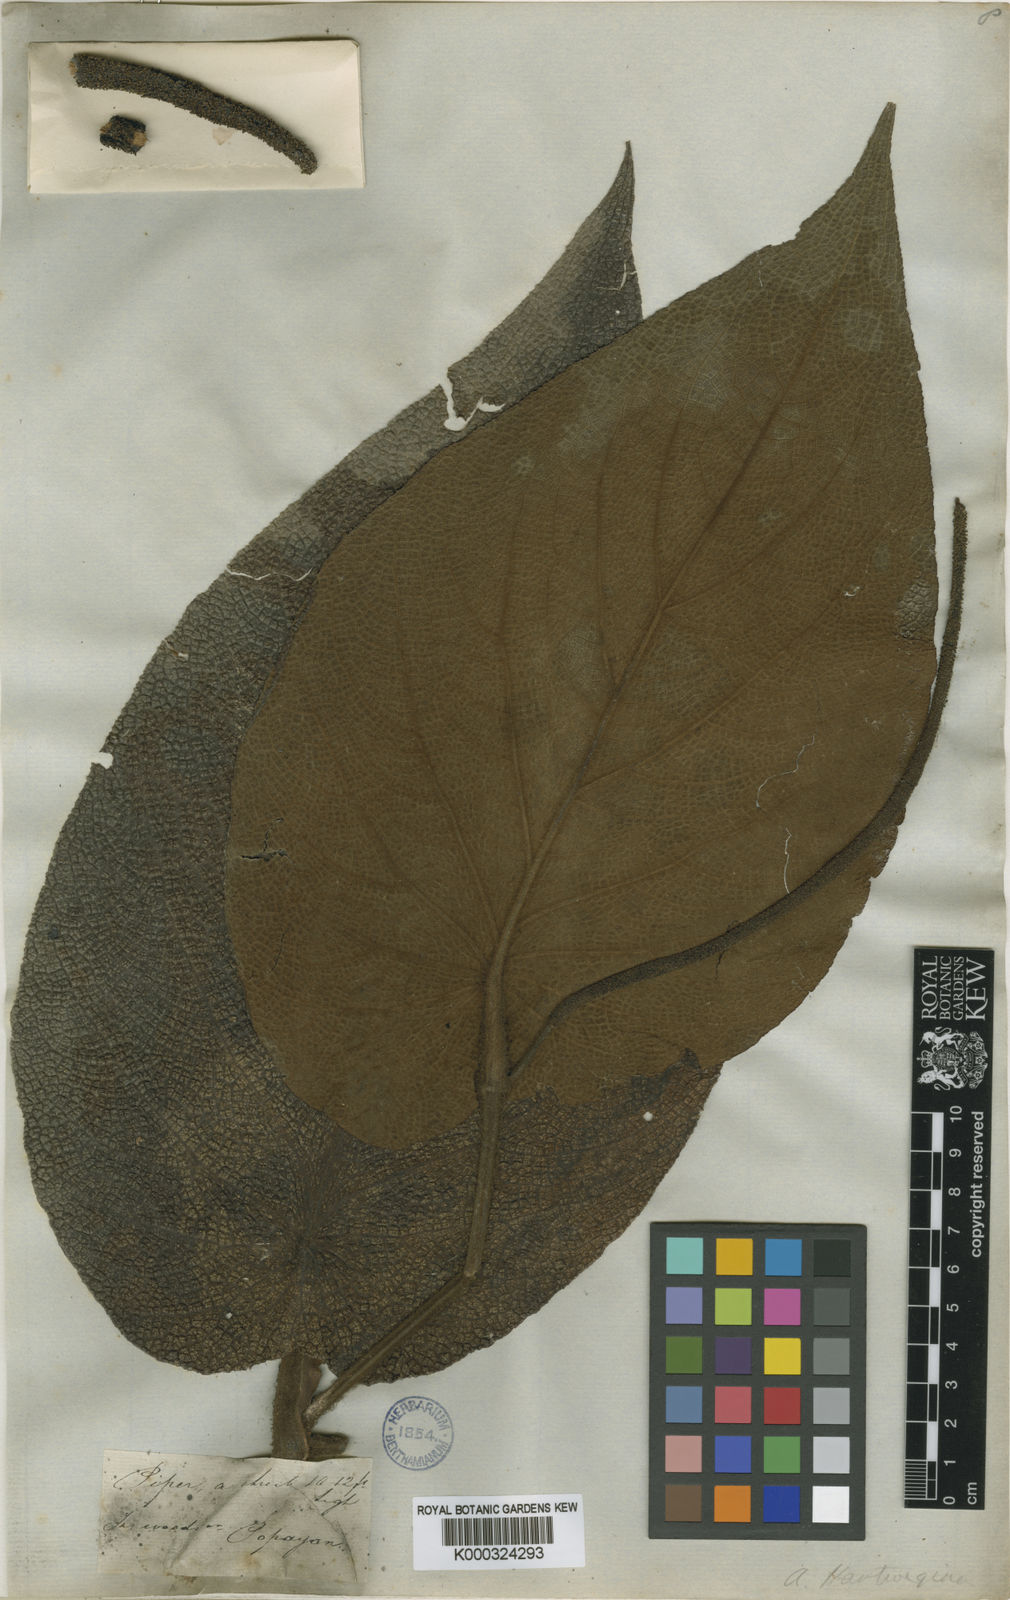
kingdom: Plantae
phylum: Tracheophyta
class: Magnoliopsida
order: Piperales
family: Piperaceae
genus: Piper
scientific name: Piper hartwegianum
